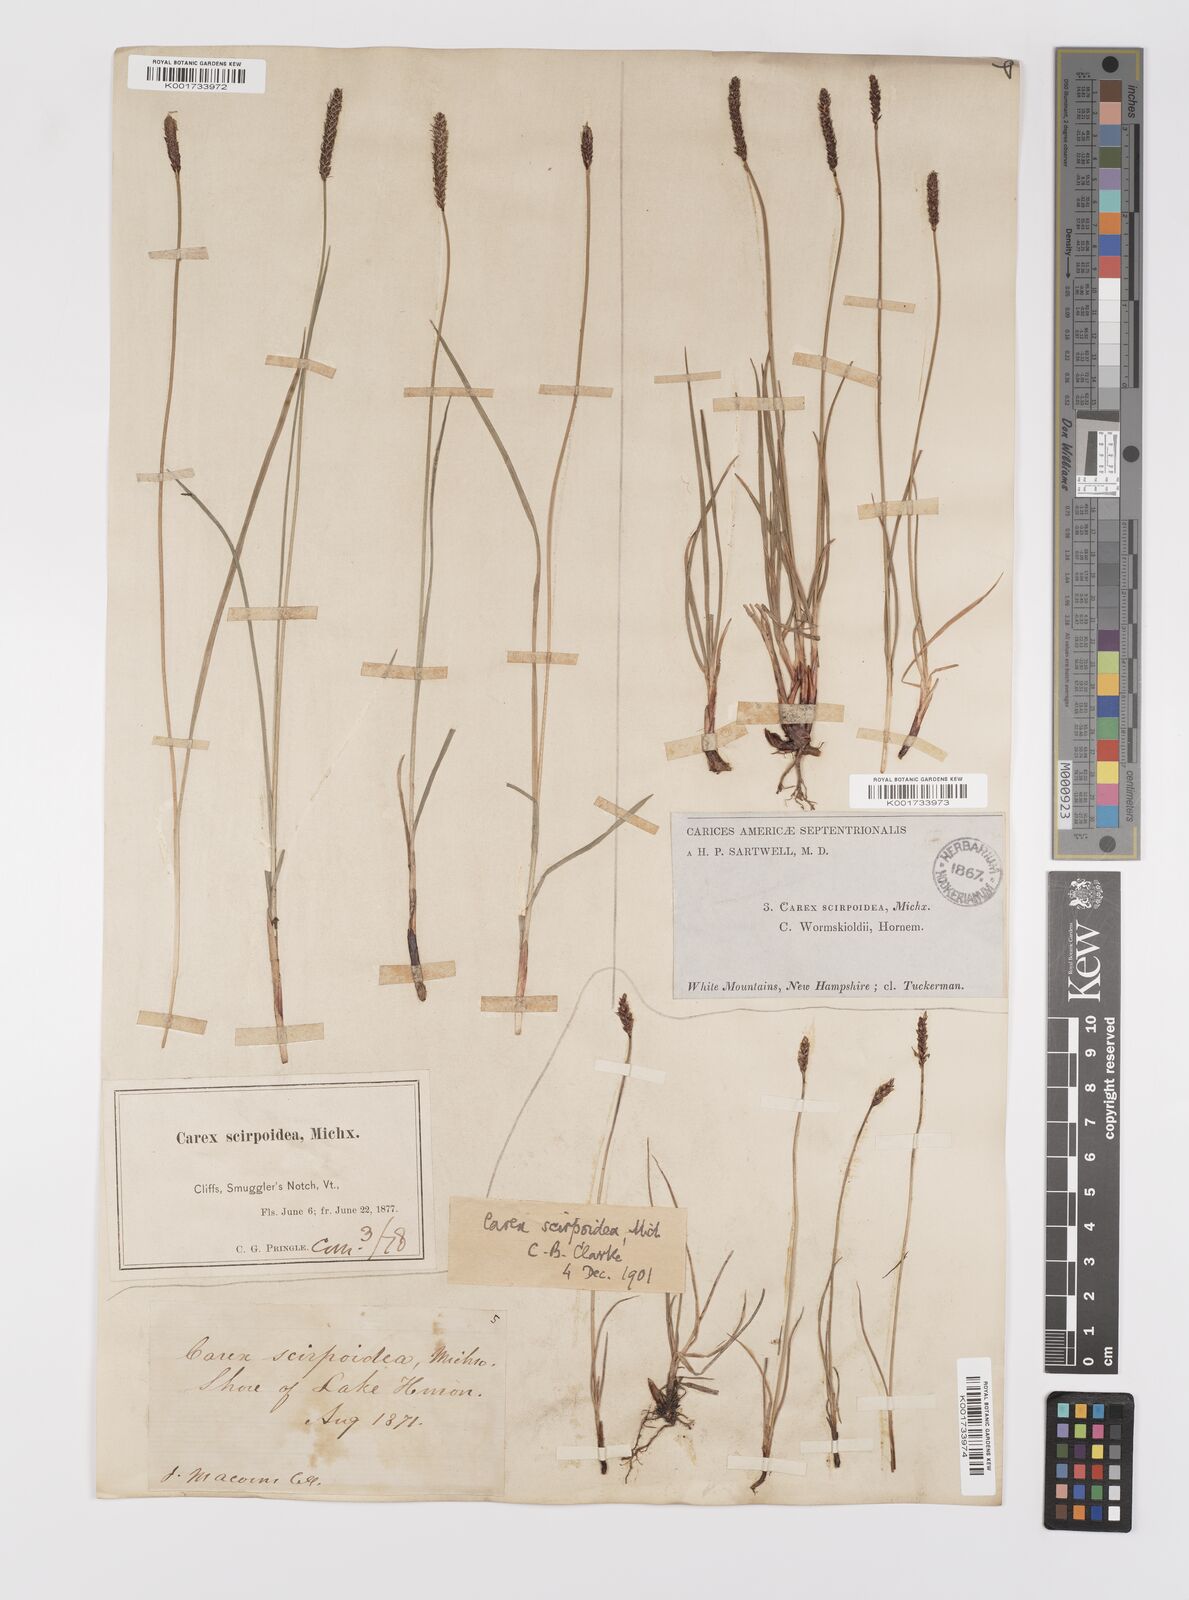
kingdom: Plantae
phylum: Tracheophyta
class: Liliopsida
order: Poales
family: Cyperaceae
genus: Carex
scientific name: Carex scirpoidea
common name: Canada single-spike sedge
